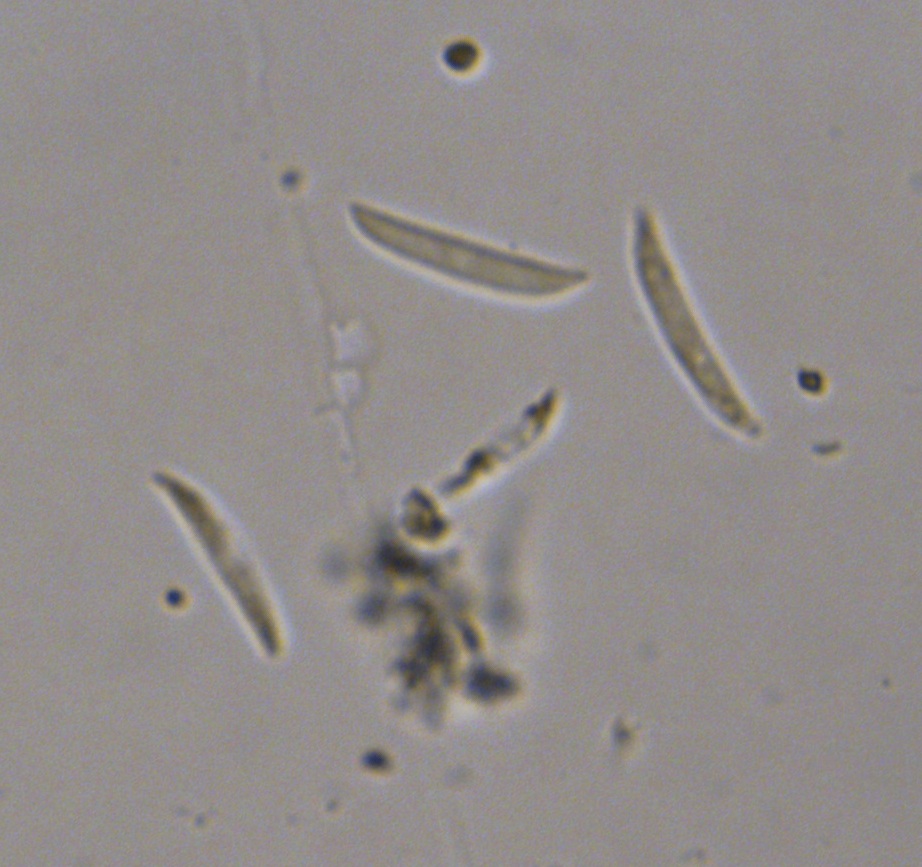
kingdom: Fungi
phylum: Ascomycota
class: Sordariomycetes
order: Glomerellales
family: Glomerellaceae
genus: Colletotrichum
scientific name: Colletotrichum
